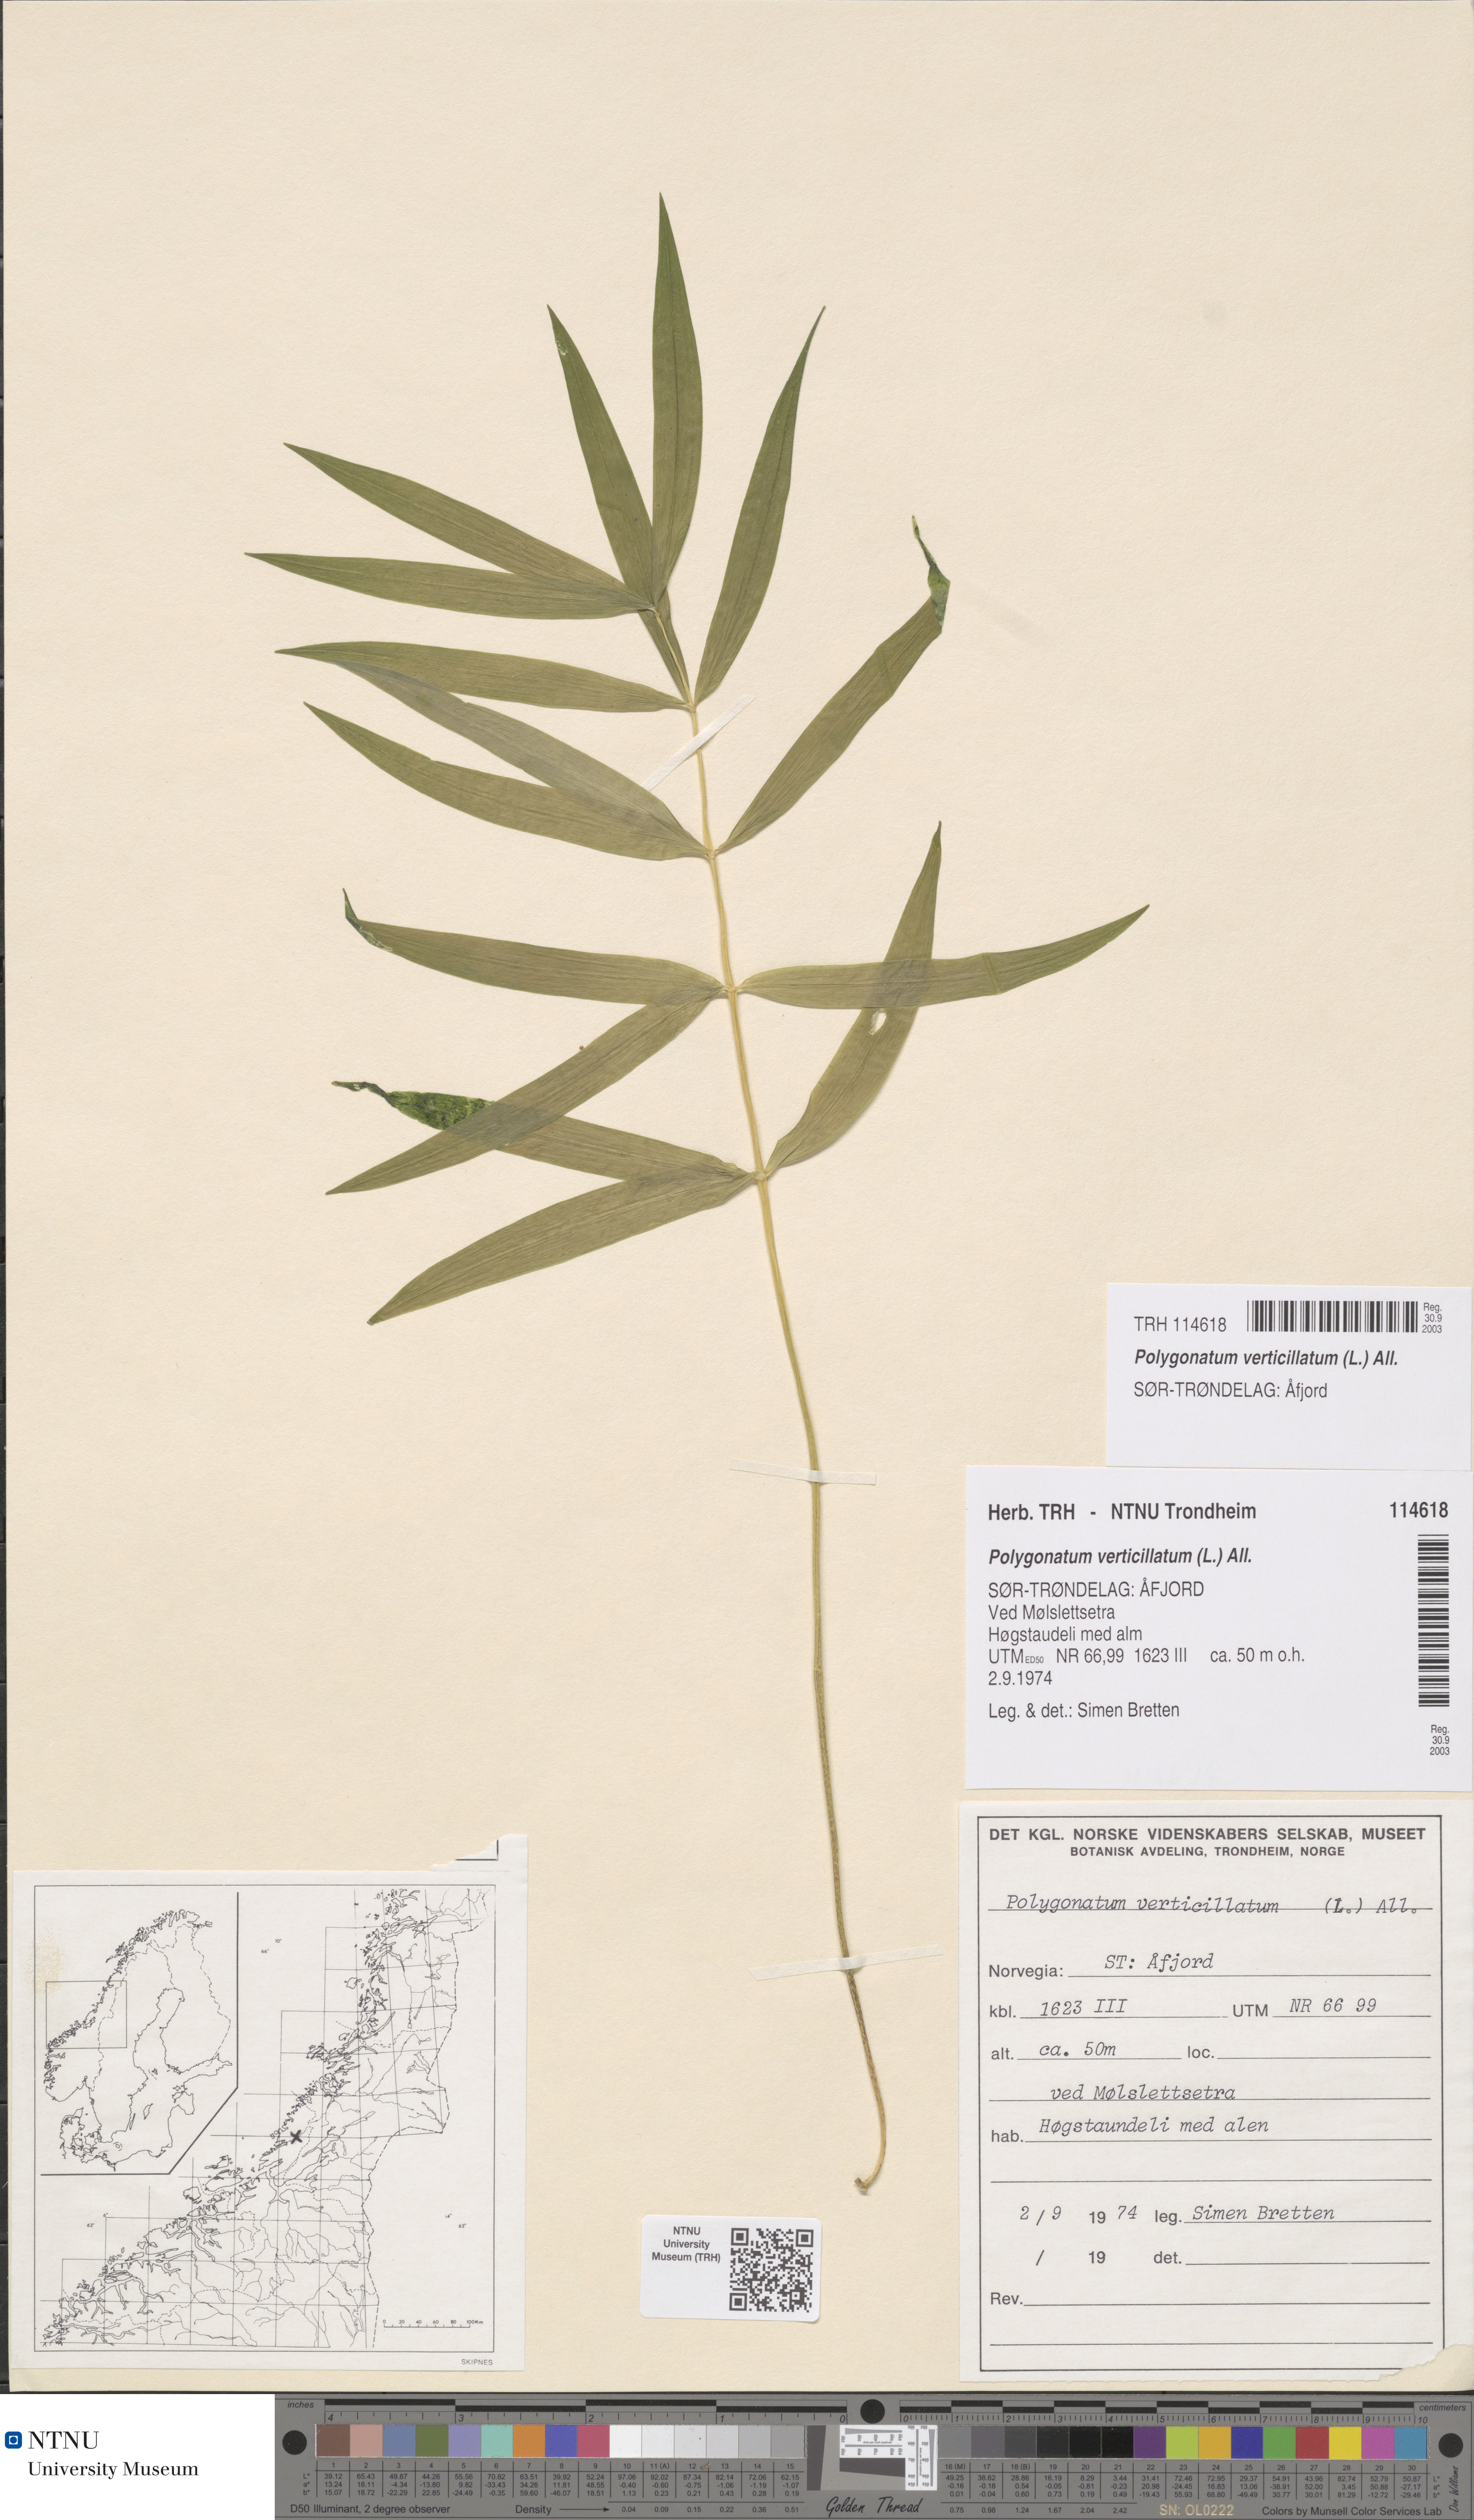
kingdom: Plantae
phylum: Tracheophyta
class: Liliopsida
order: Asparagales
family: Asparagaceae
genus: Polygonatum
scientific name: Polygonatum verticillatum
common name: Whorled solomon's-seal
